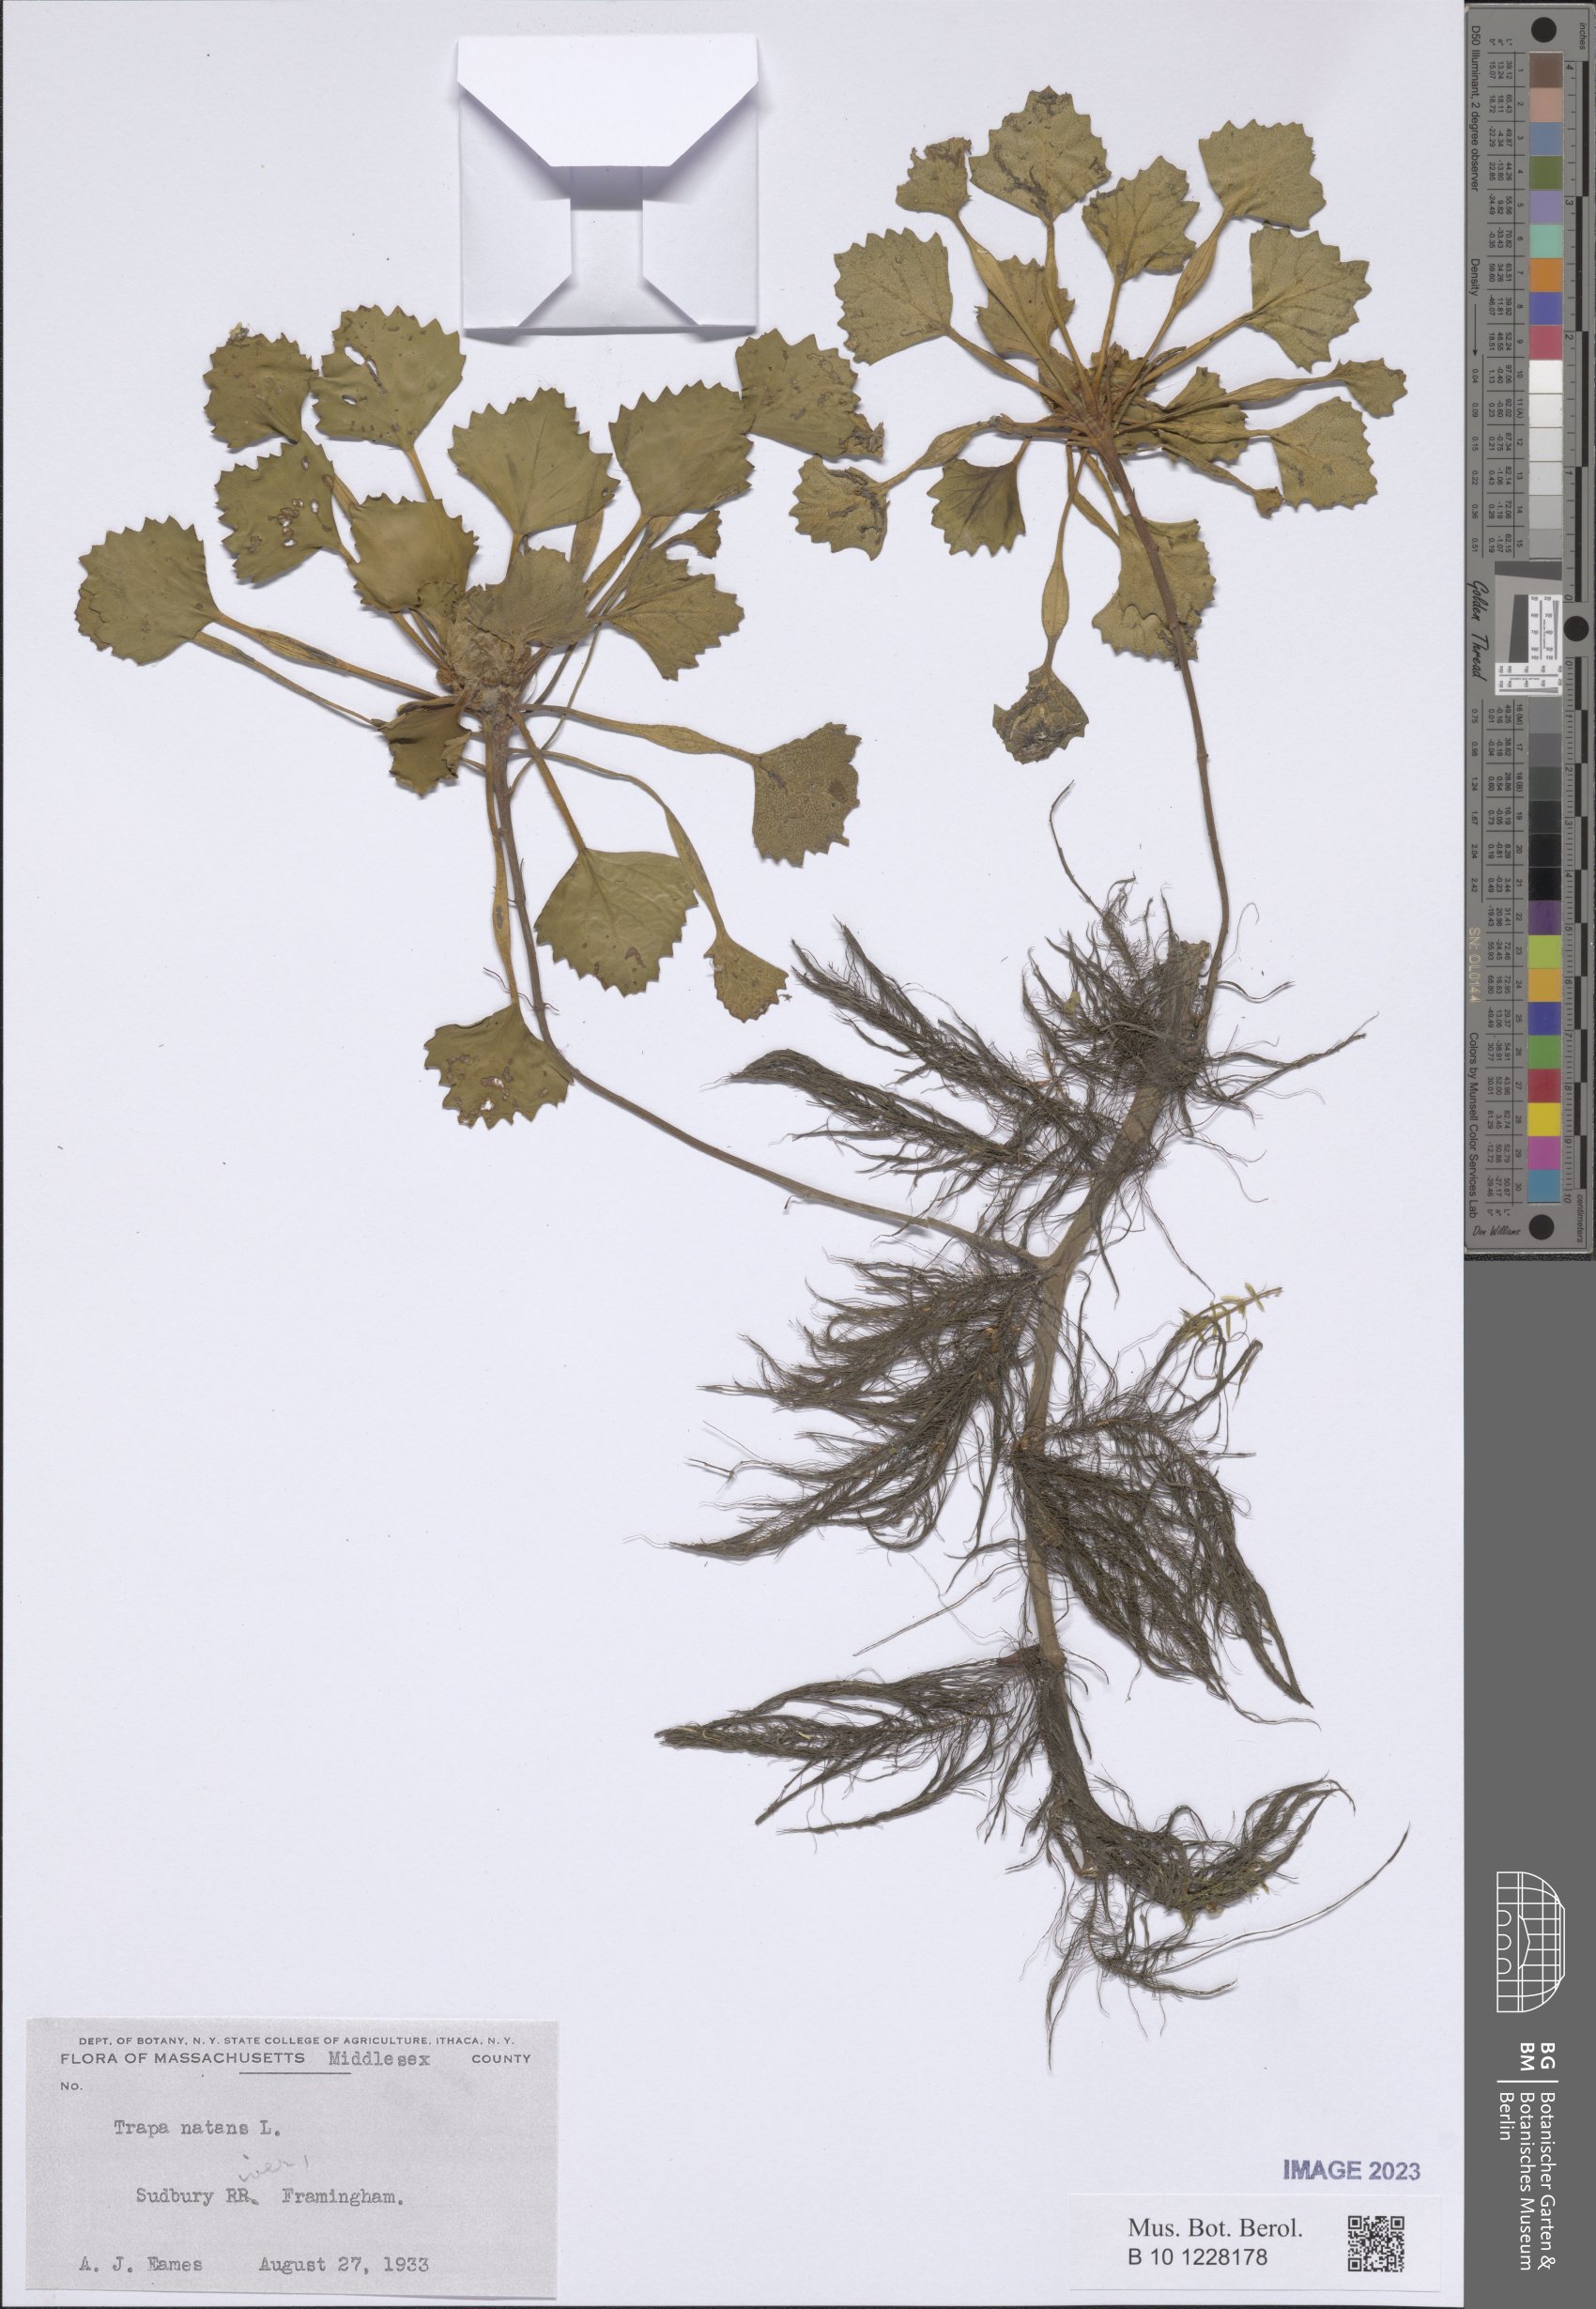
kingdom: Plantae
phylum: Tracheophyta
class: Magnoliopsida
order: Myrtales
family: Lythraceae
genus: Trapa
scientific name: Trapa natans
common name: Water chestnut
